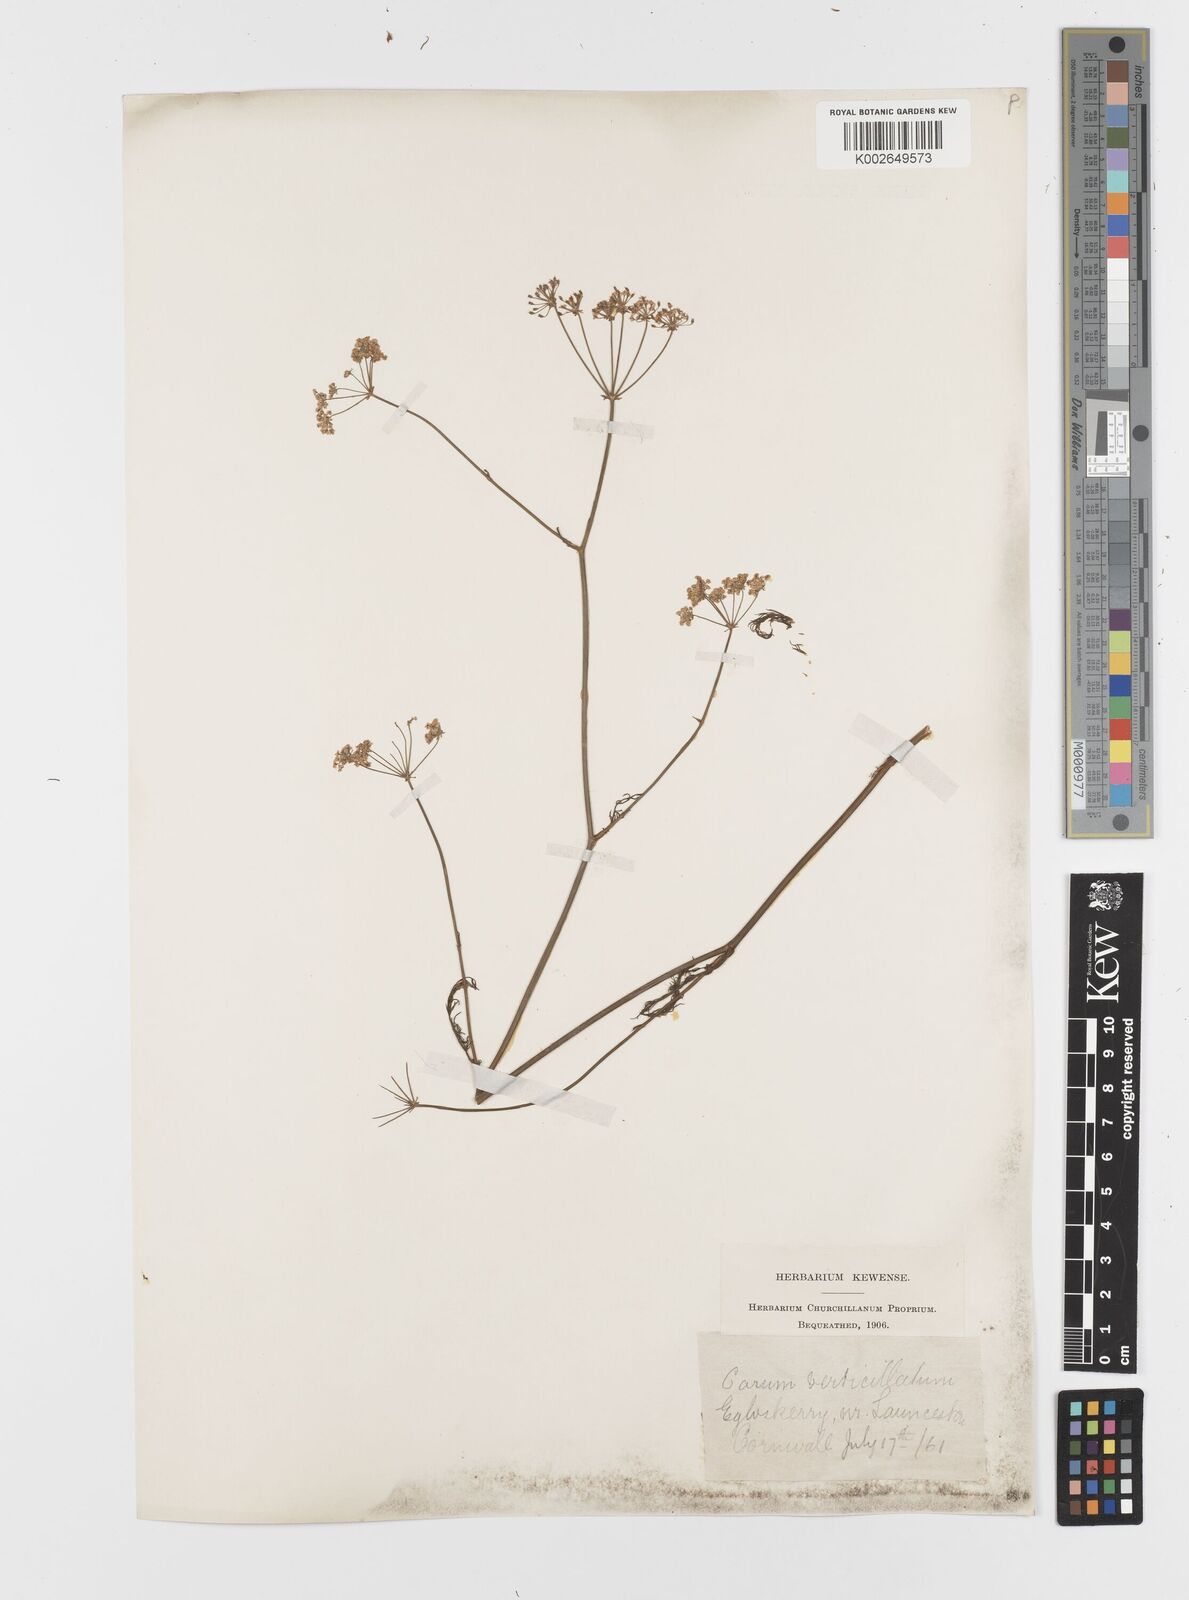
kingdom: Plantae
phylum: Tracheophyta
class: Magnoliopsida
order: Apiales
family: Apiaceae
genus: Trocdaris
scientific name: Trocdaris verticillatum
